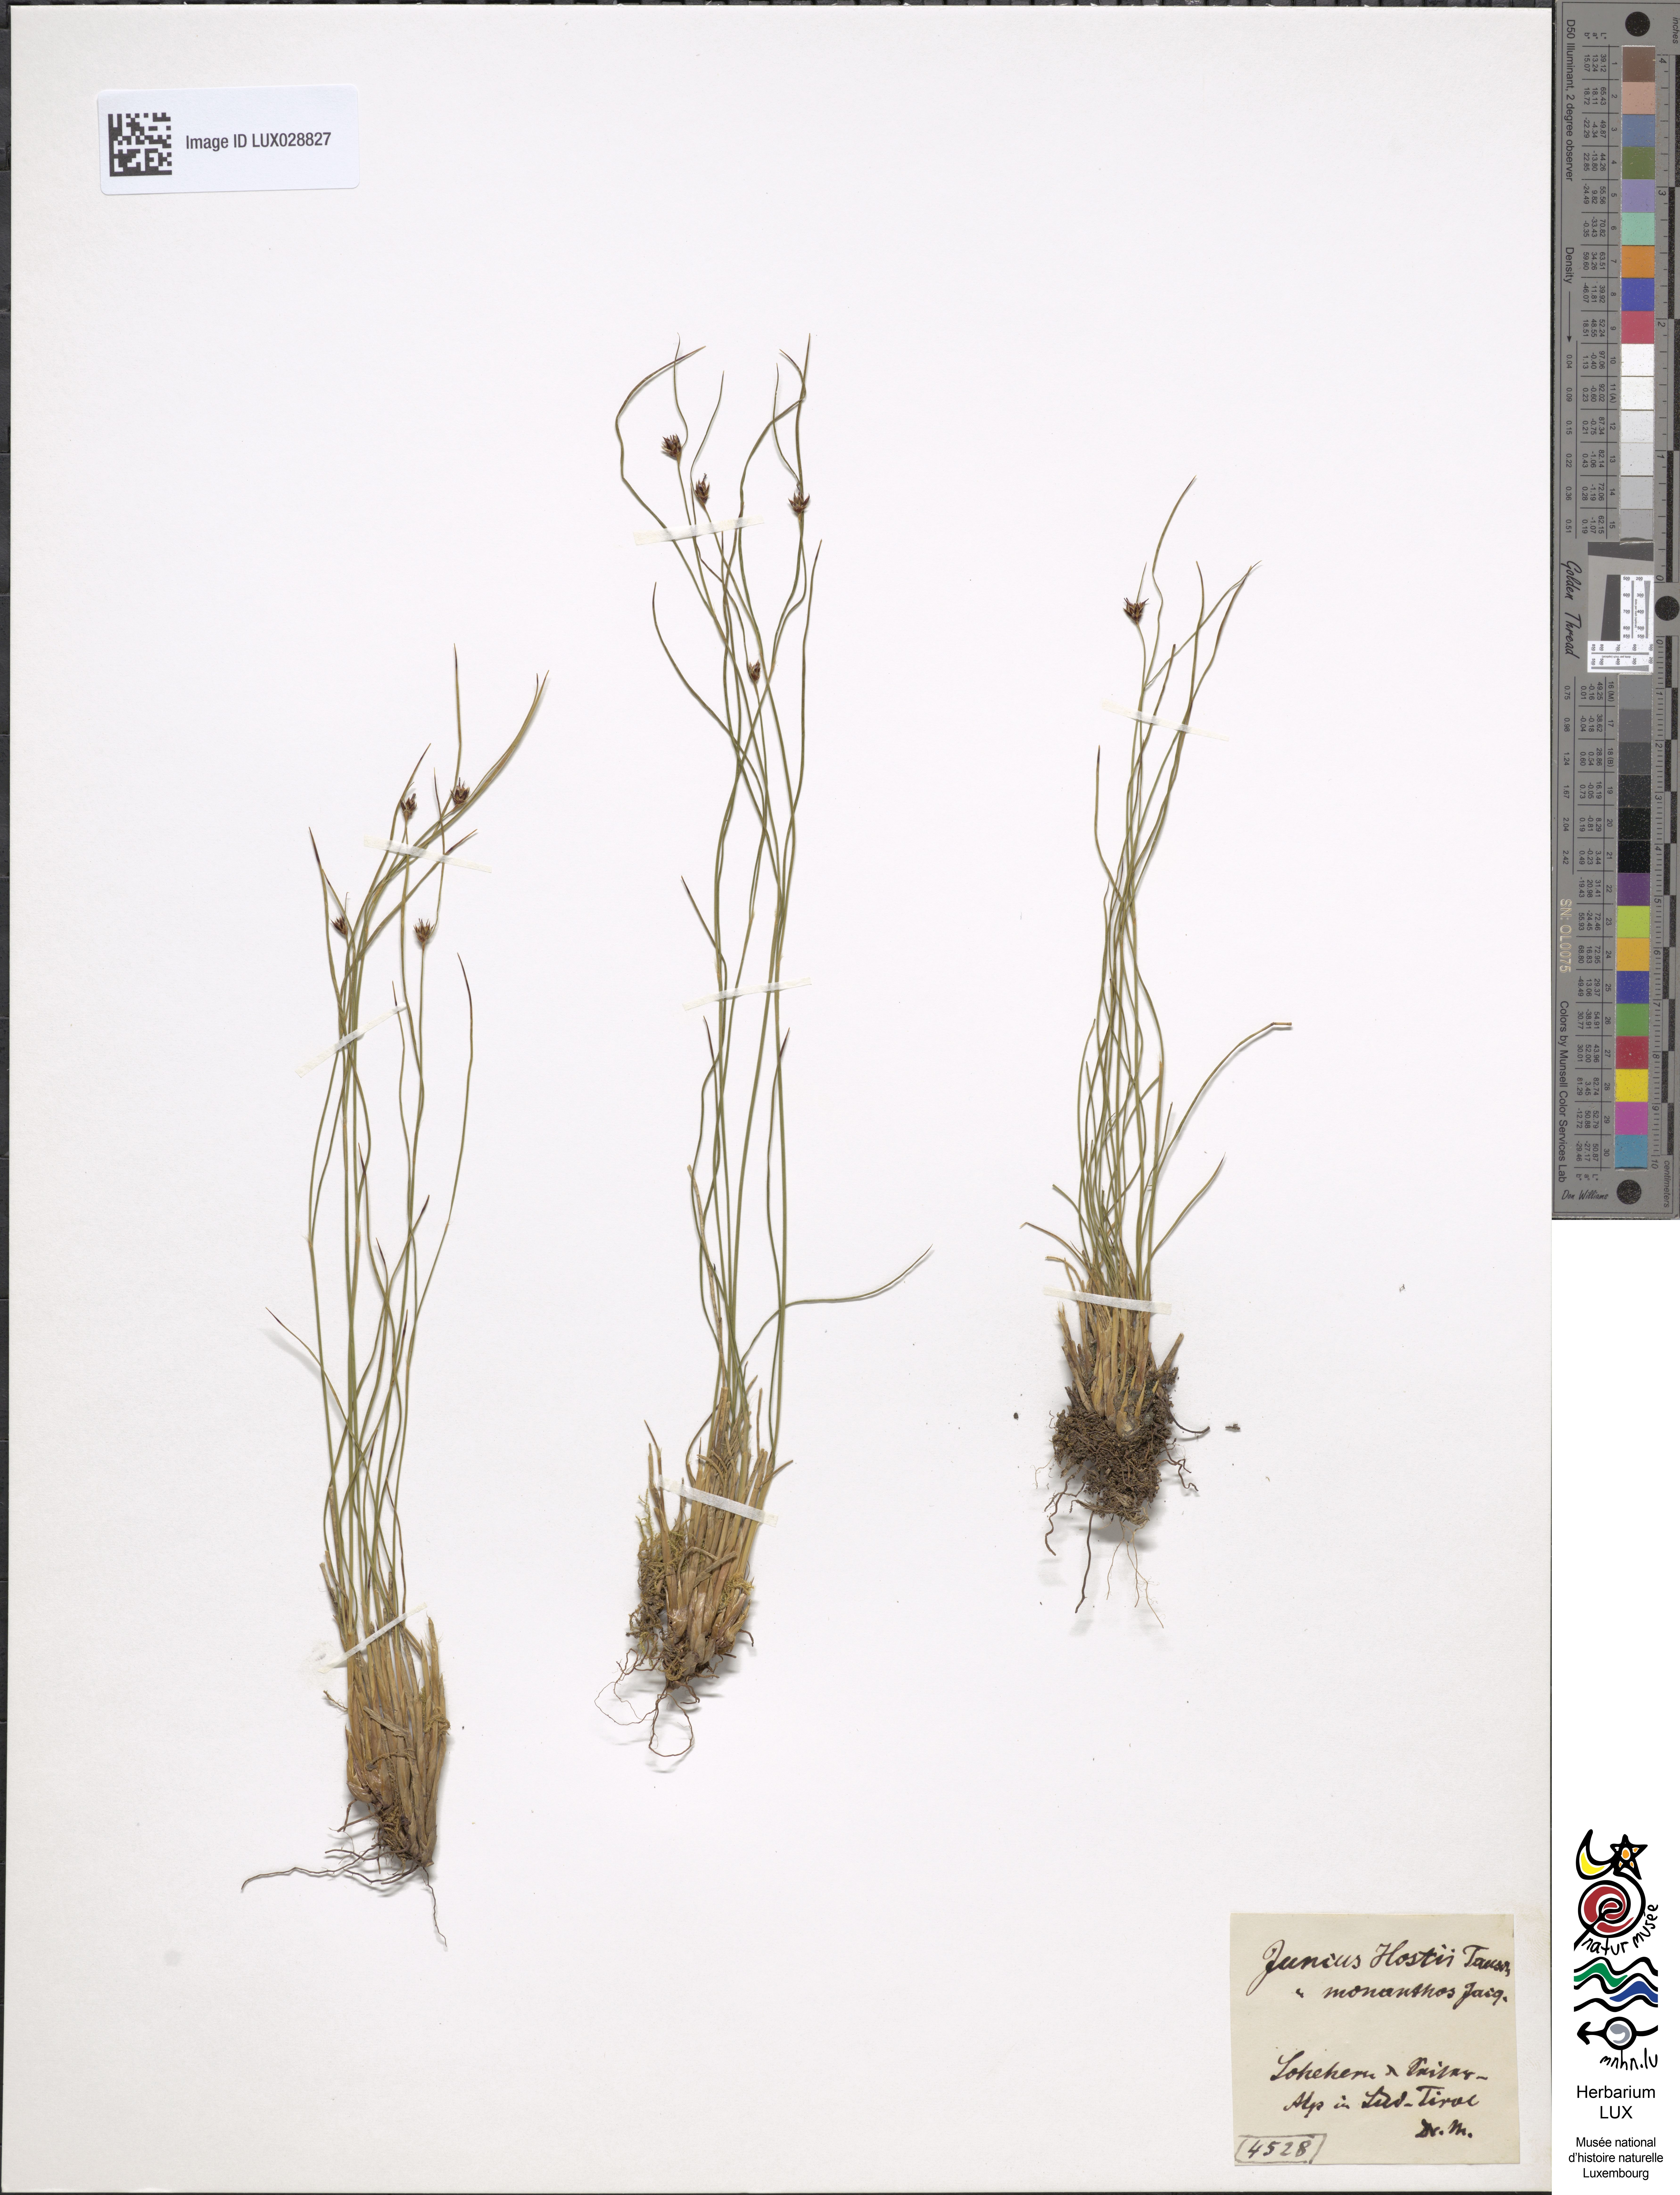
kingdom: Plantae
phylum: Tracheophyta
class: Liliopsida
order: Poales
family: Juncaceae
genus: Oreojuncus
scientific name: Oreojuncus monanthos
